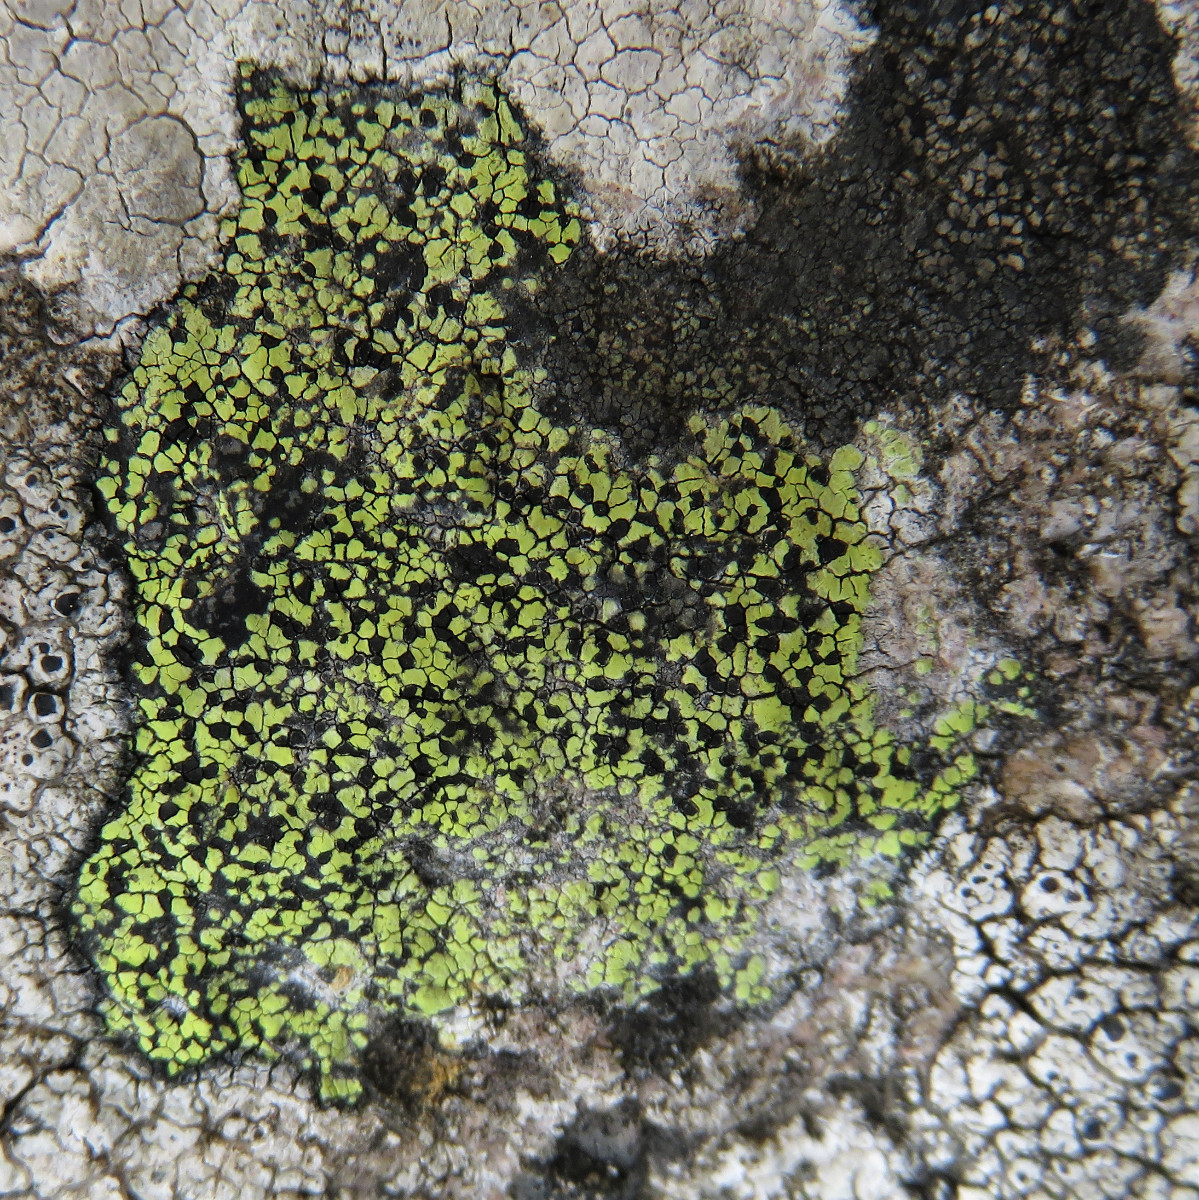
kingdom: Fungi
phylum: Ascomycota
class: Lecanoromycetes
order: Rhizocarpales
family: Rhizocarpaceae
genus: Rhizocarpon
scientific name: Rhizocarpon geographicum
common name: gulgrøn landkortlav
